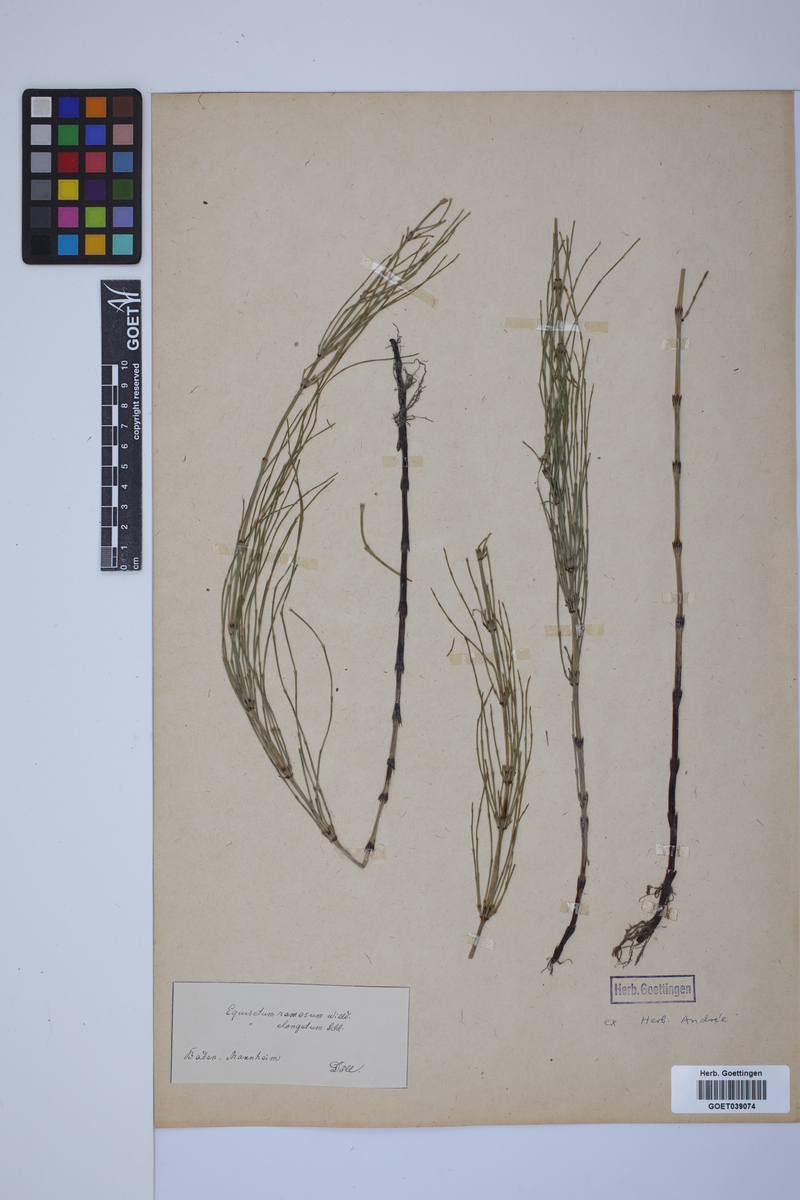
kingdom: Plantae
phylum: Tracheophyta
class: Polypodiopsida
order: Equisetales
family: Equisetaceae
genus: Equisetum
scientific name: Equisetum giganteum
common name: Giant horsetail
